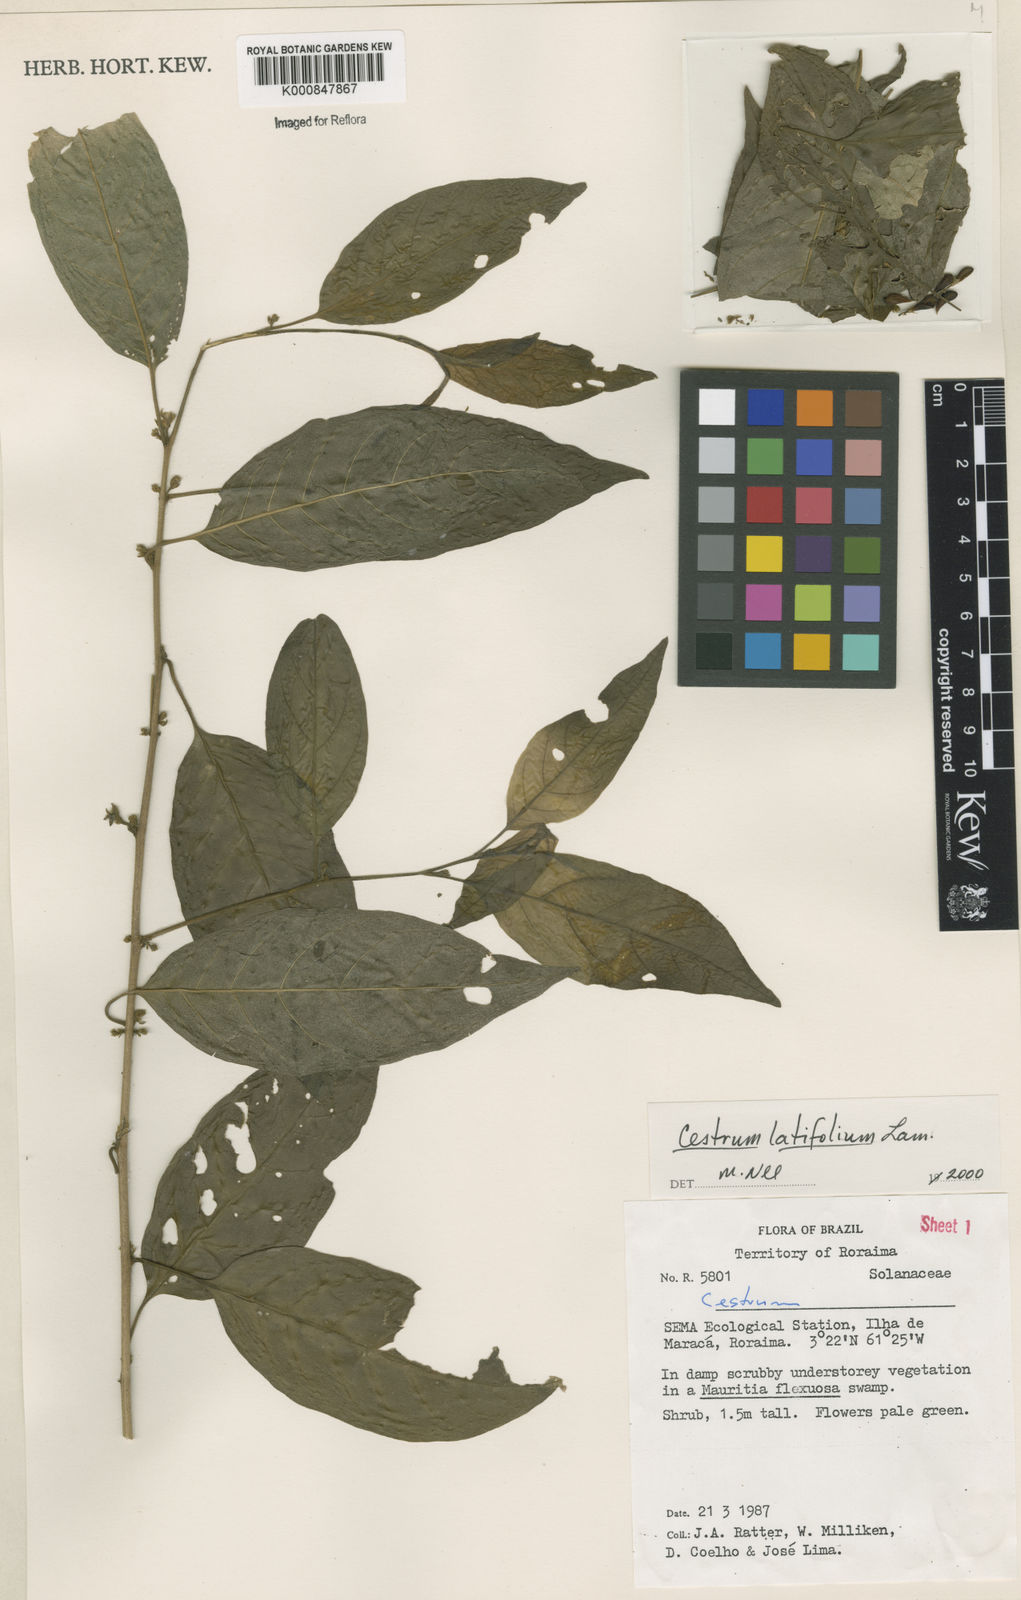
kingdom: Plantae
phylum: Tracheophyta
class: Magnoliopsida
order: Solanales
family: Solanaceae
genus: Cestrum
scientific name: Cestrum latifolium
